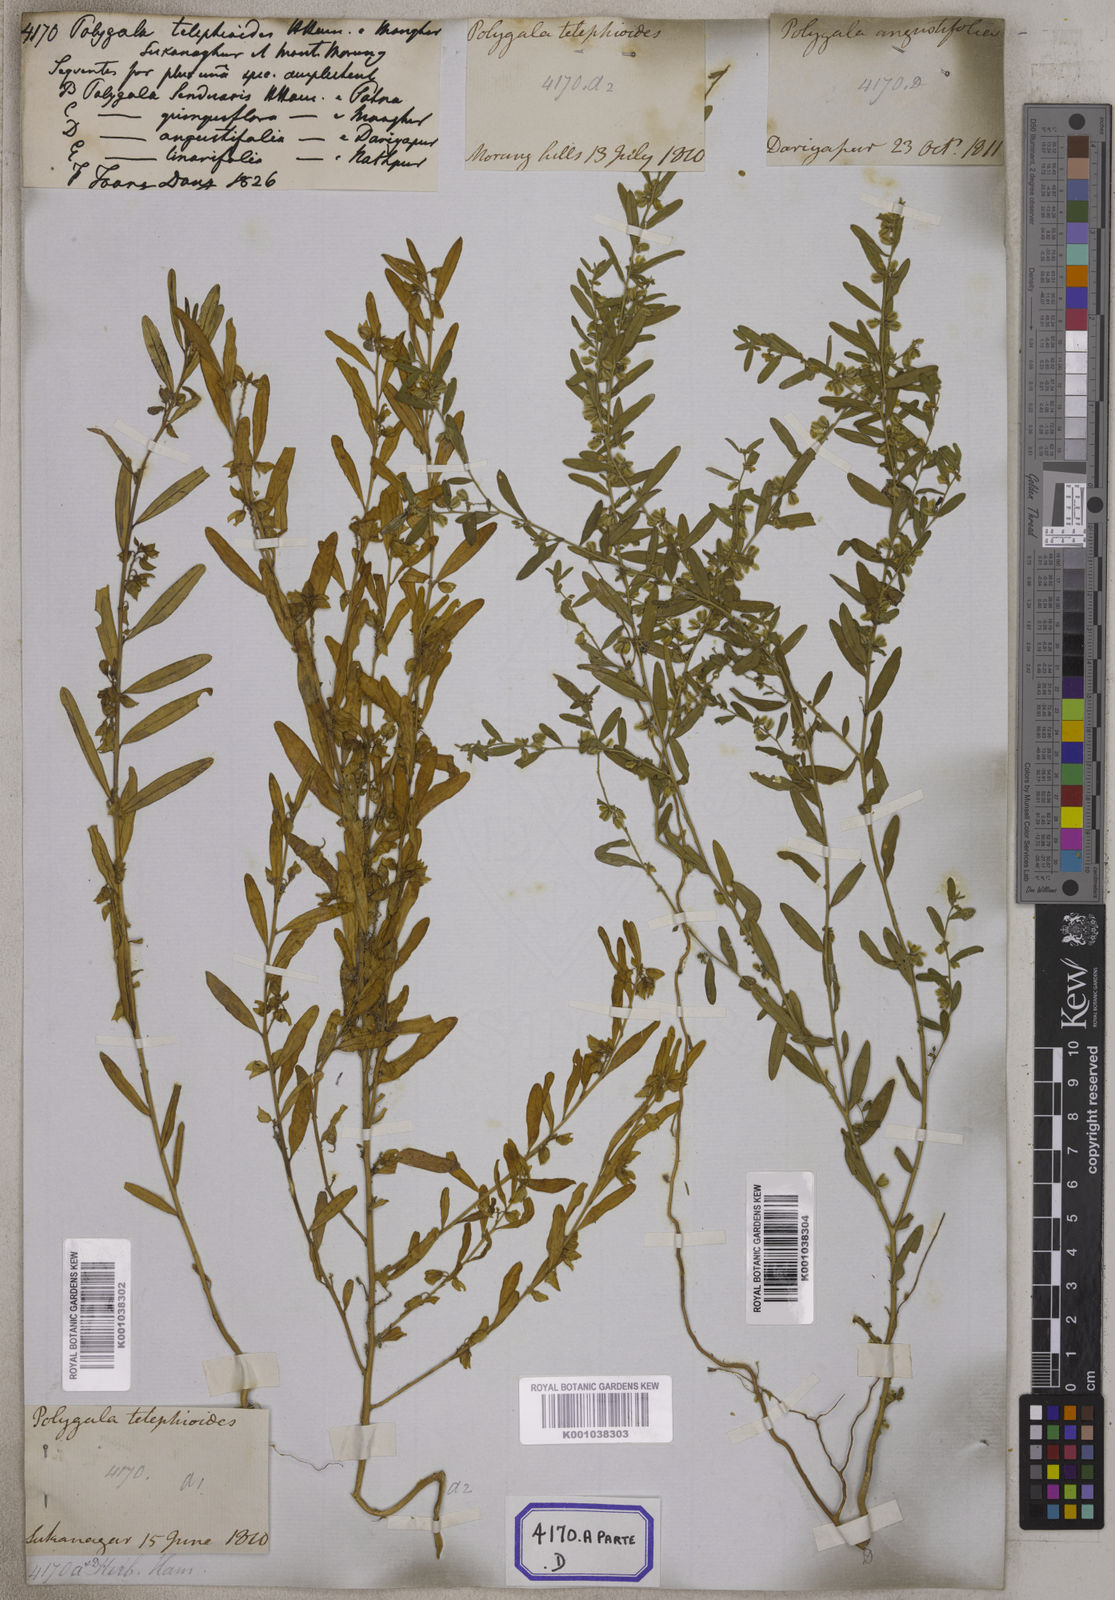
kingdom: Plantae
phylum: Tracheophyta
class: Magnoliopsida
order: Fabales
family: Polygalaceae
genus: Polygala
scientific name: Polygala telephioides
